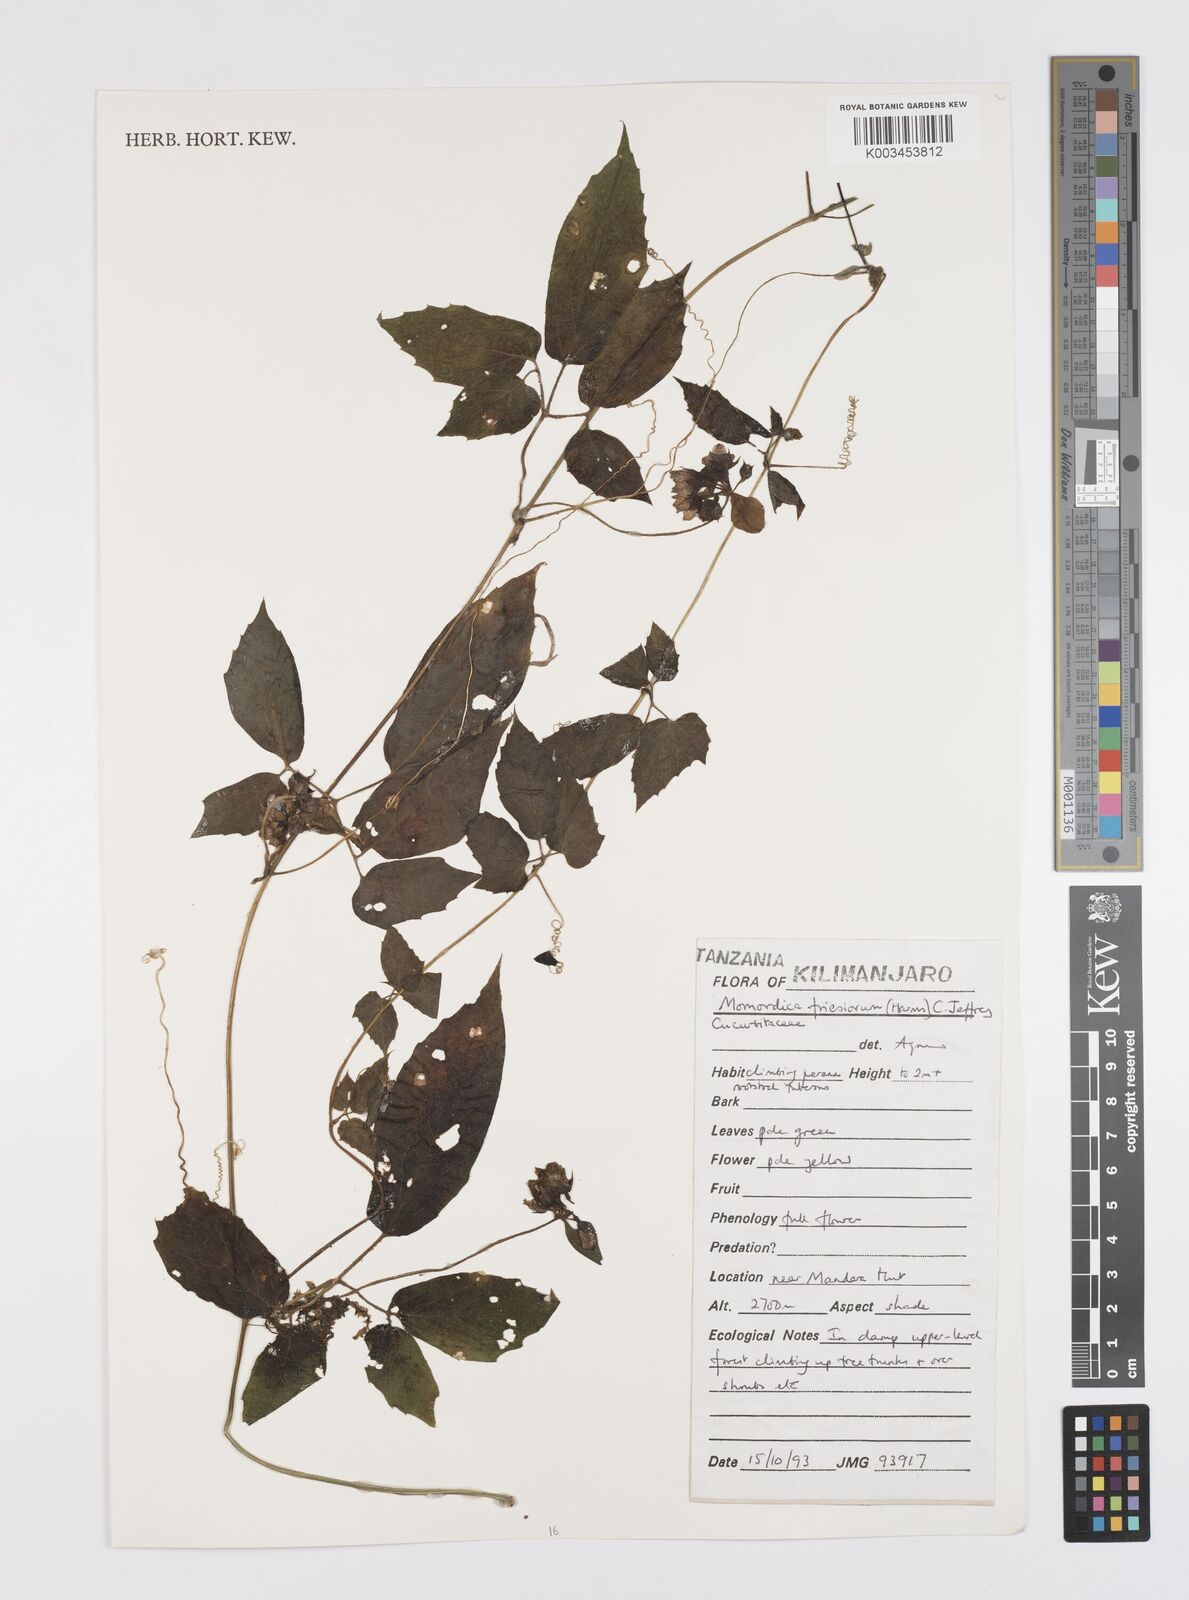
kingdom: Plantae
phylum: Tracheophyta
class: Magnoliopsida
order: Cucurbitales
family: Cucurbitaceae
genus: Momordica
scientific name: Momordica friesiorum
